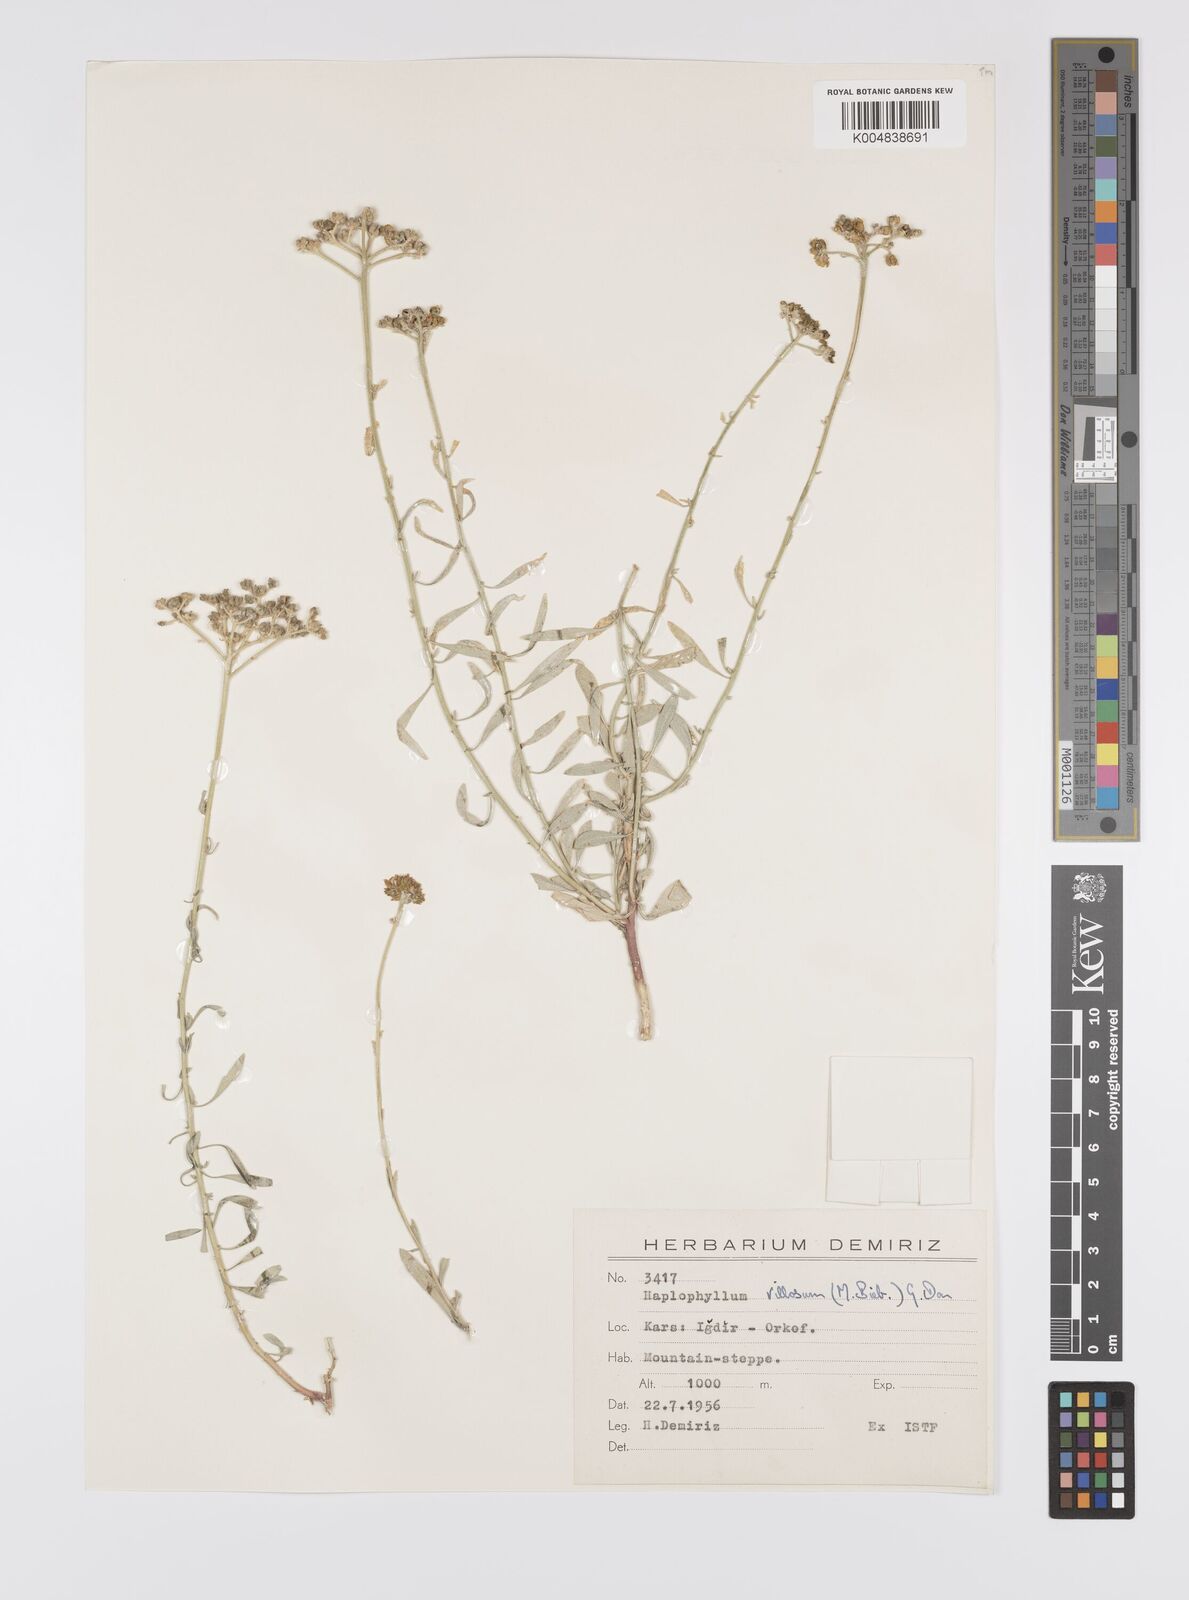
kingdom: Plantae
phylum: Tracheophyta
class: Magnoliopsida
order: Sapindales
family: Rutaceae
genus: Haplophyllum
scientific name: Haplophyllum villosum
